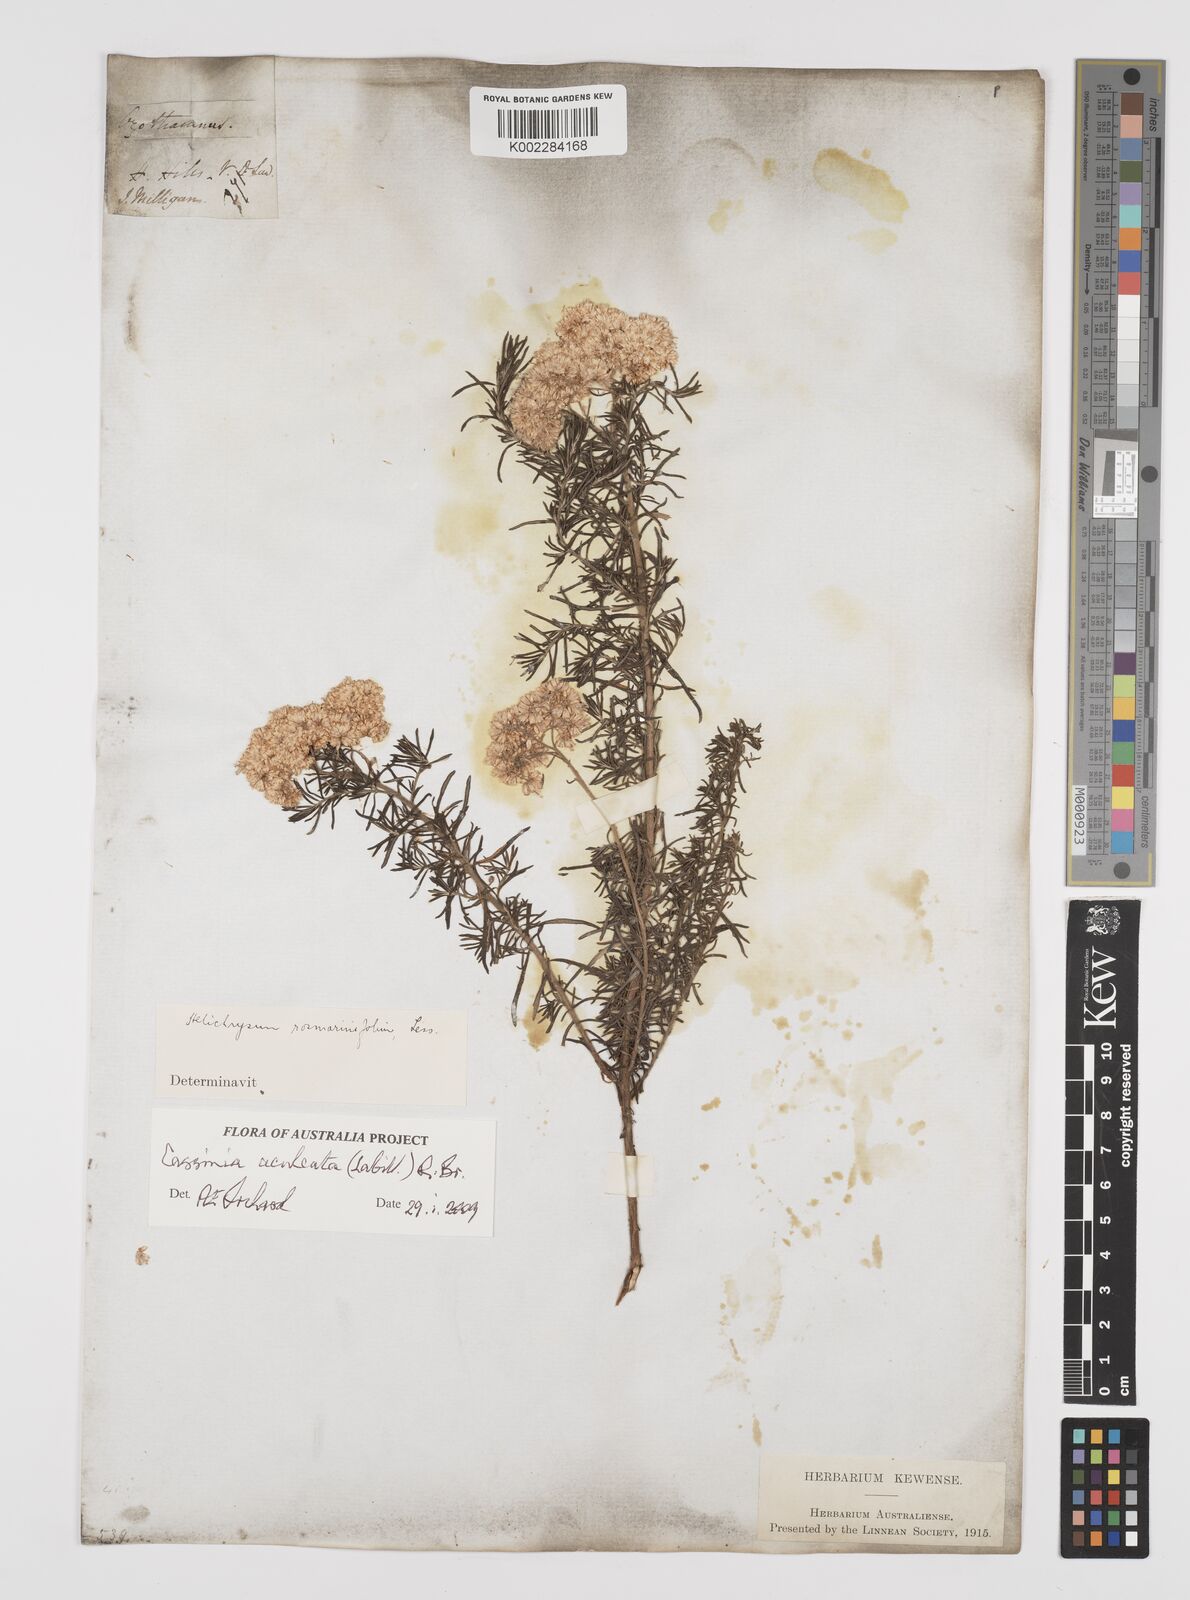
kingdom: Plantae
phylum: Tracheophyta
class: Magnoliopsida
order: Asterales
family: Asteraceae
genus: Cassinia
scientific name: Cassinia aculeata
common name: Australian tauhinu
